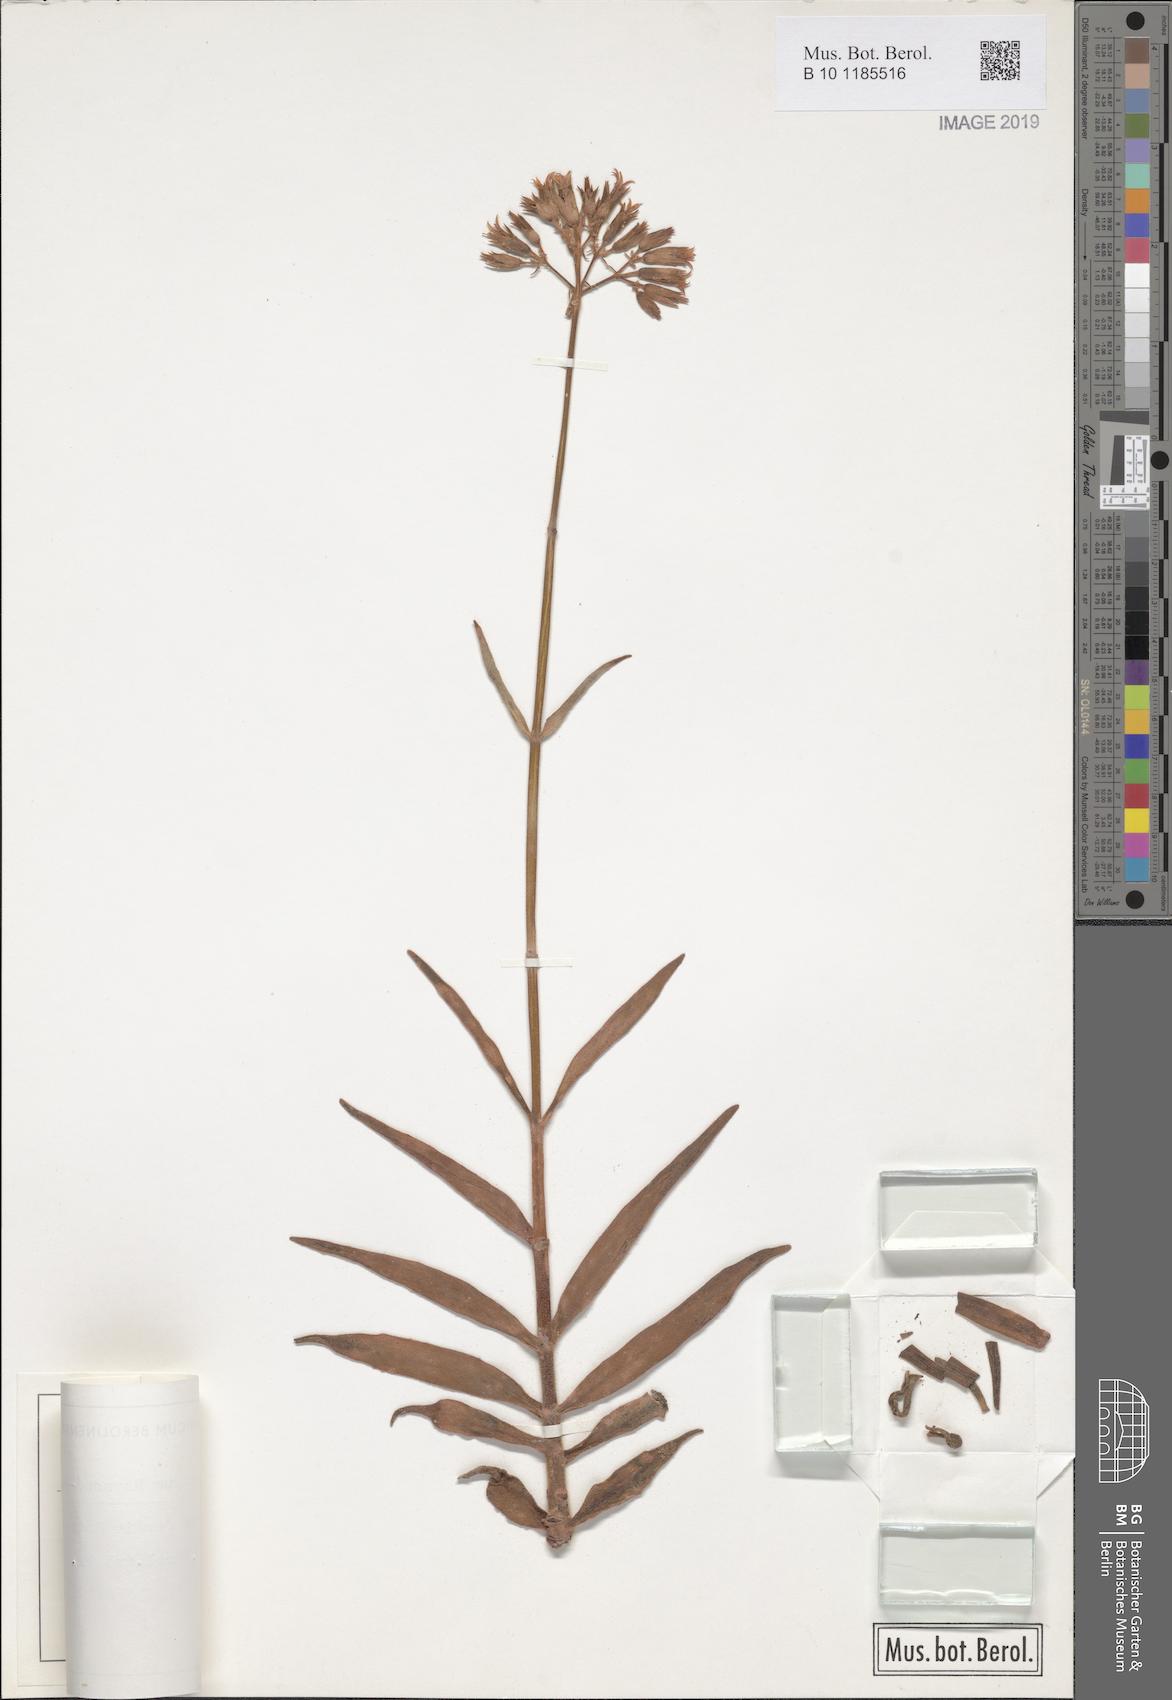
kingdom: Plantae
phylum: Tracheophyta
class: Magnoliopsida
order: Saxifragales
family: Crassulaceae
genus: Kalanchoe
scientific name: Kalanchoe hametorum
